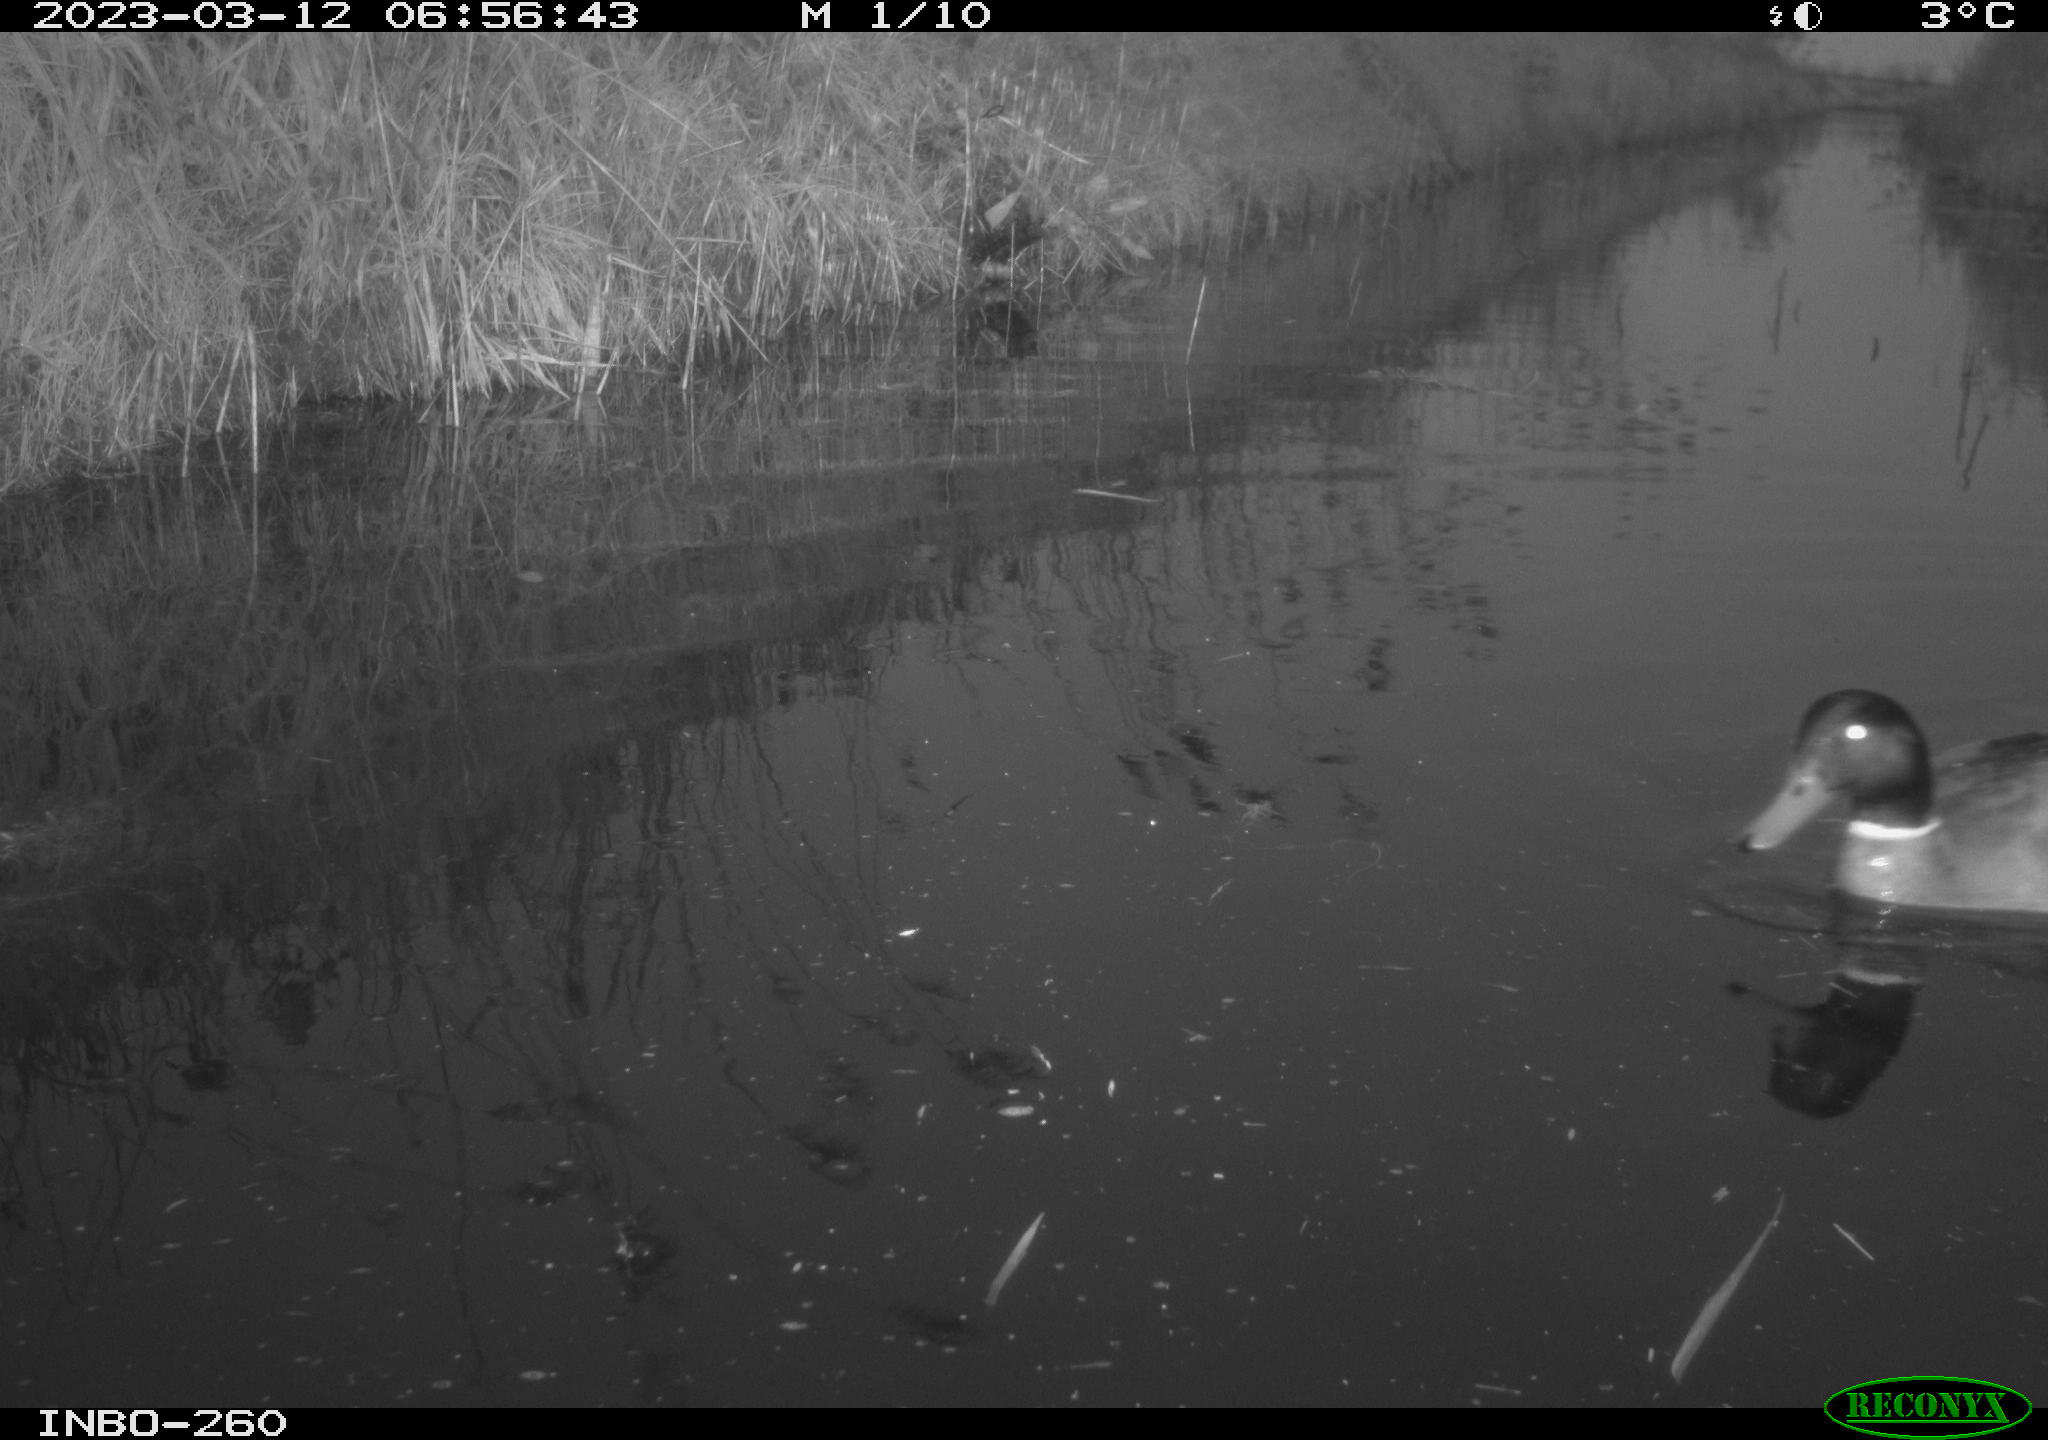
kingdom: Animalia
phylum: Chordata
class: Aves
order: Anseriformes
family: Anatidae
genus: Anas
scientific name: Anas
